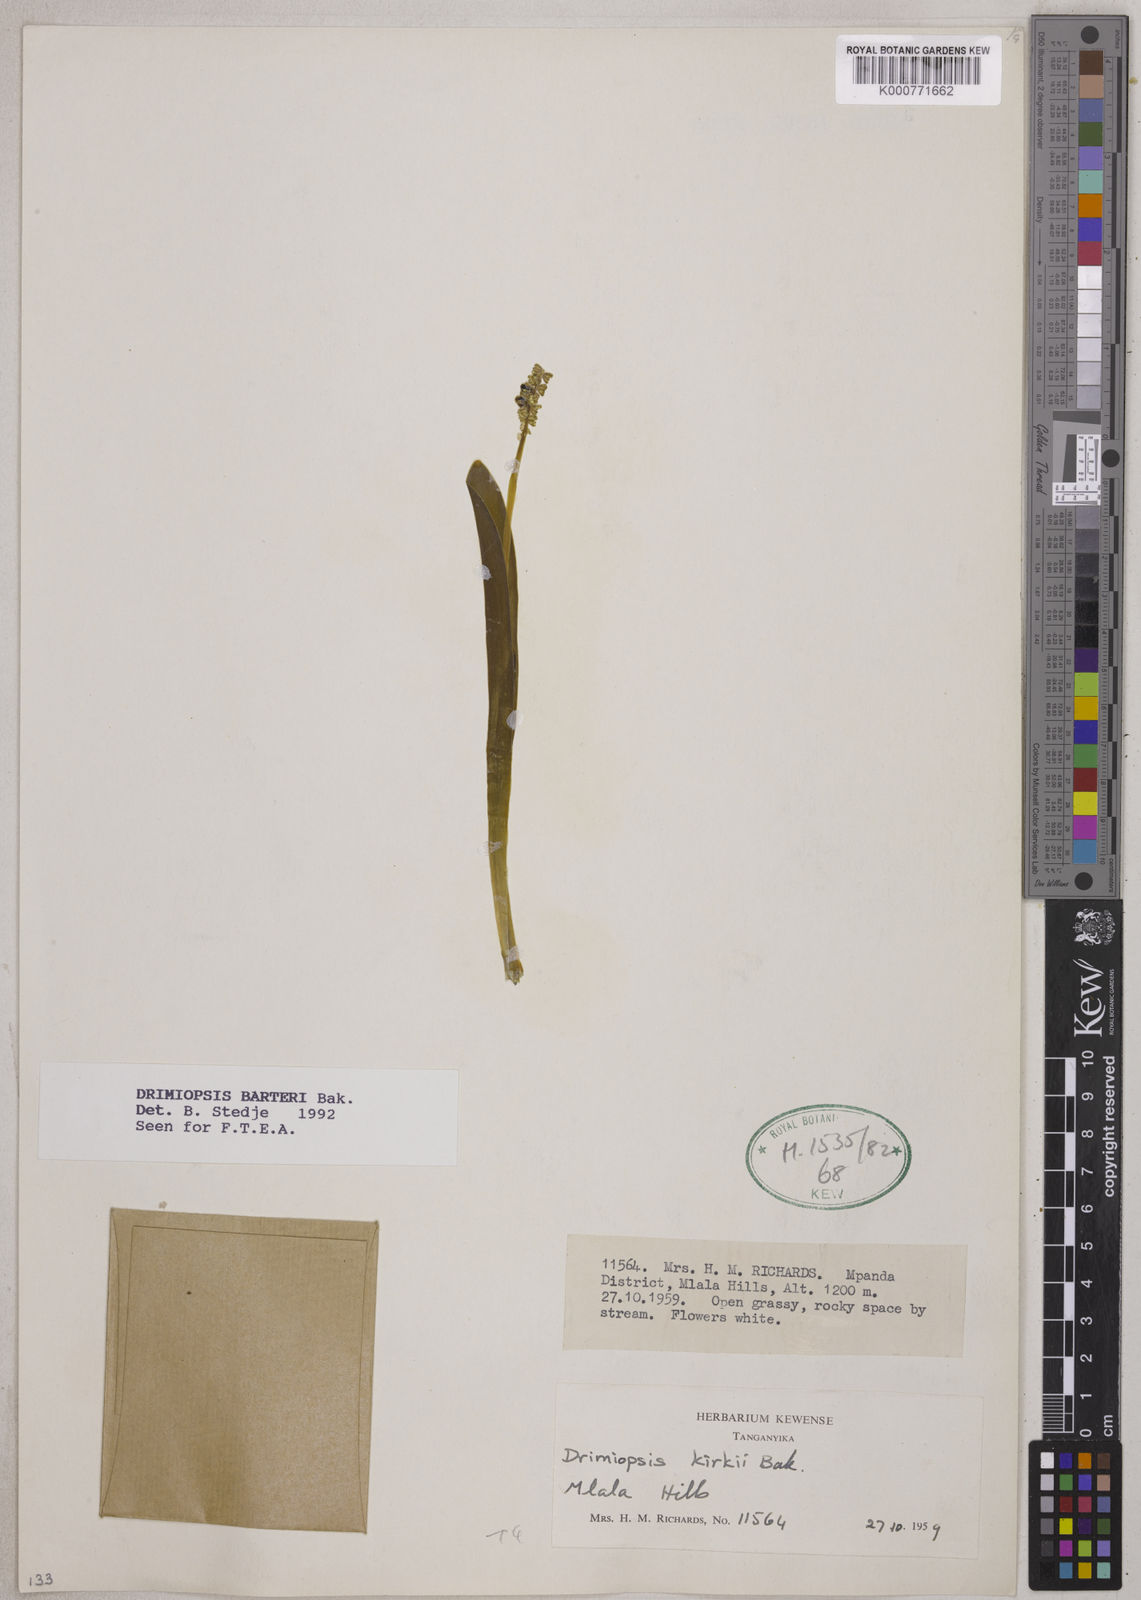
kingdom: Plantae
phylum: Tracheophyta
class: Liliopsida
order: Asparagales
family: Asparagaceae
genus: Drimiopsis
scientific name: Drimiopsis barteri
